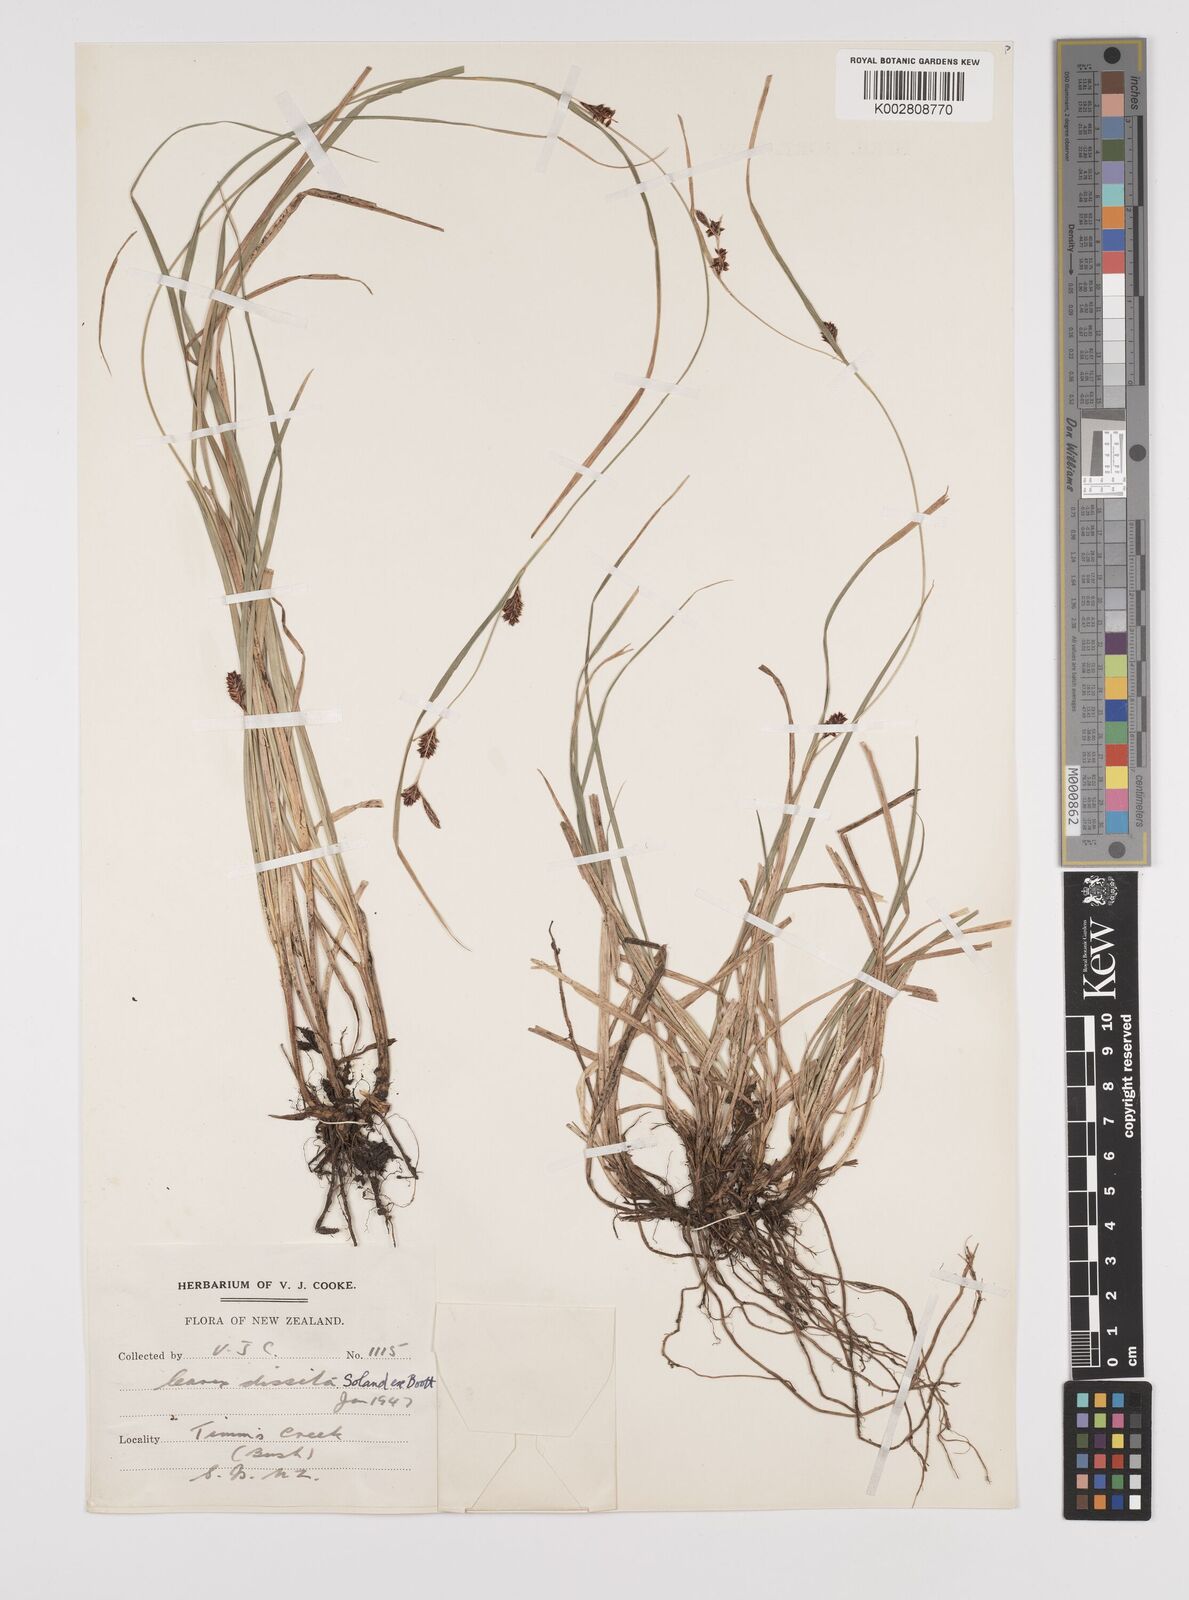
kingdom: Plantae
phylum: Tracheophyta
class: Liliopsida
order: Poales
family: Cyperaceae
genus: Carex
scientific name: Carex dissita
